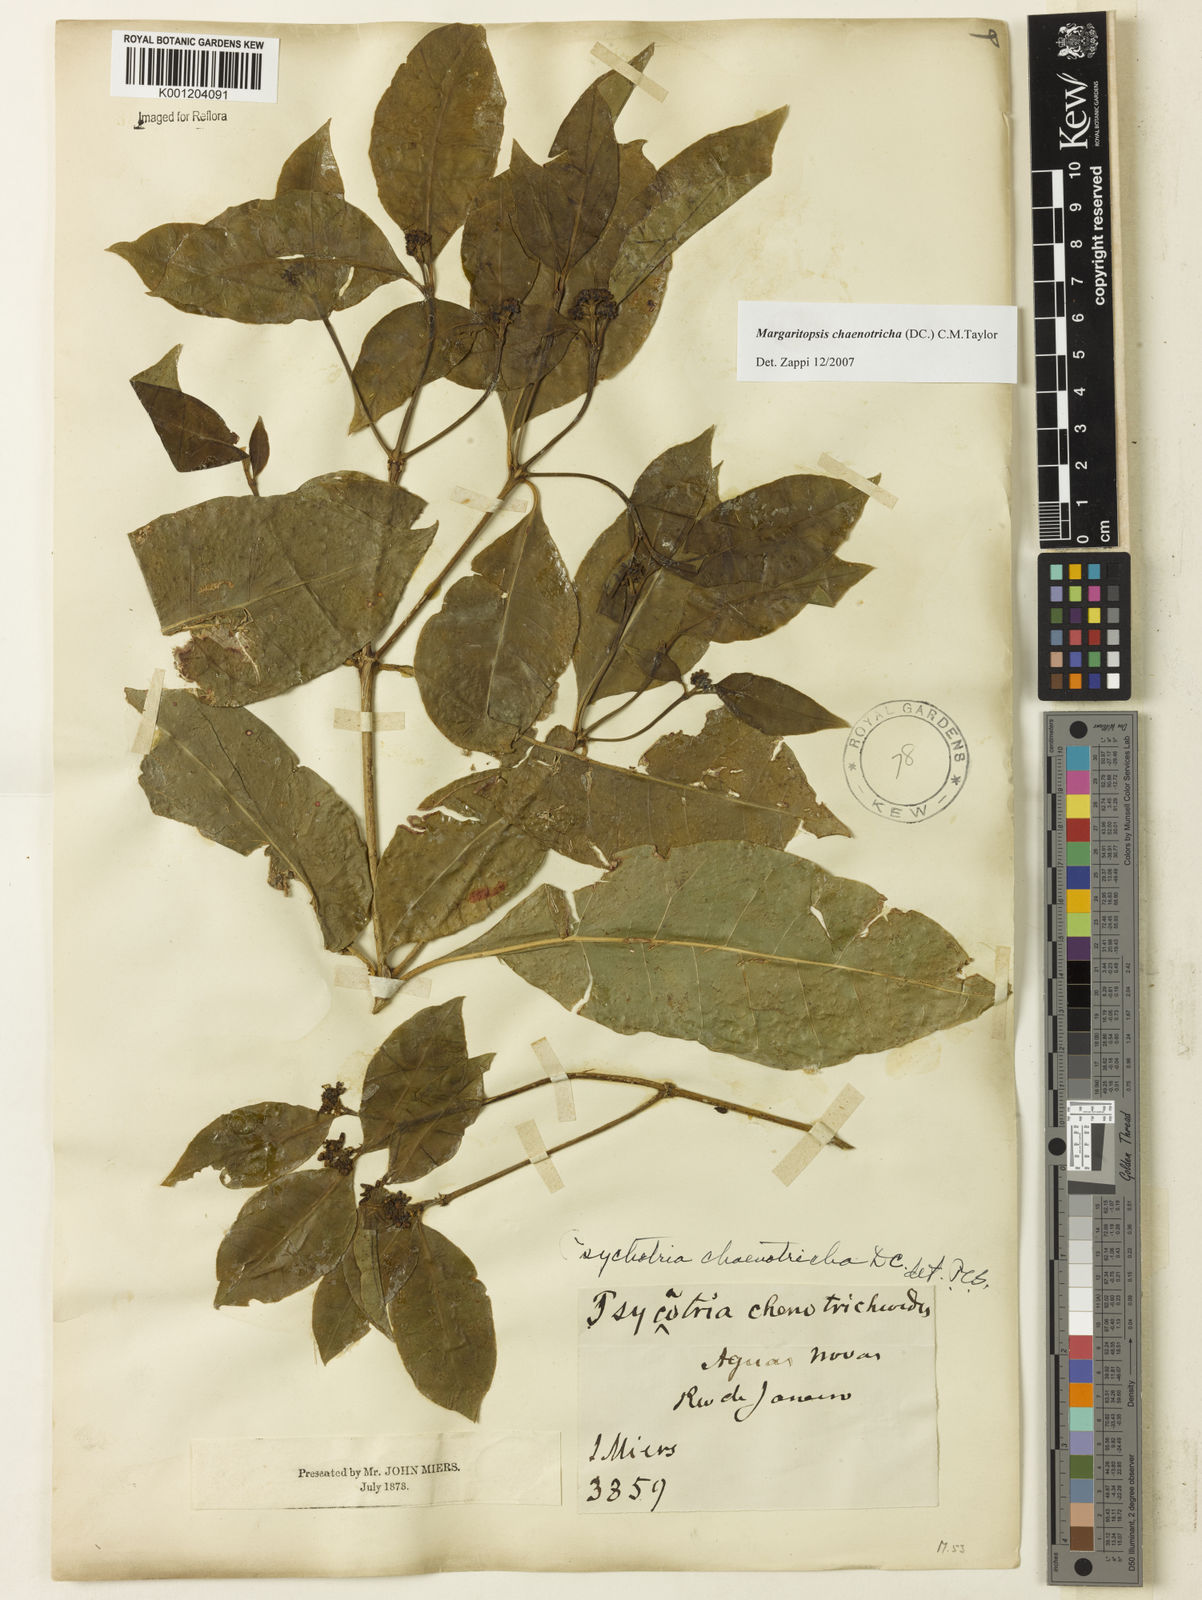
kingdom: Plantae
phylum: Tracheophyta
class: Magnoliopsida
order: Gentianales
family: Rubiaceae
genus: Eumachia
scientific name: Eumachia chaenotricha
